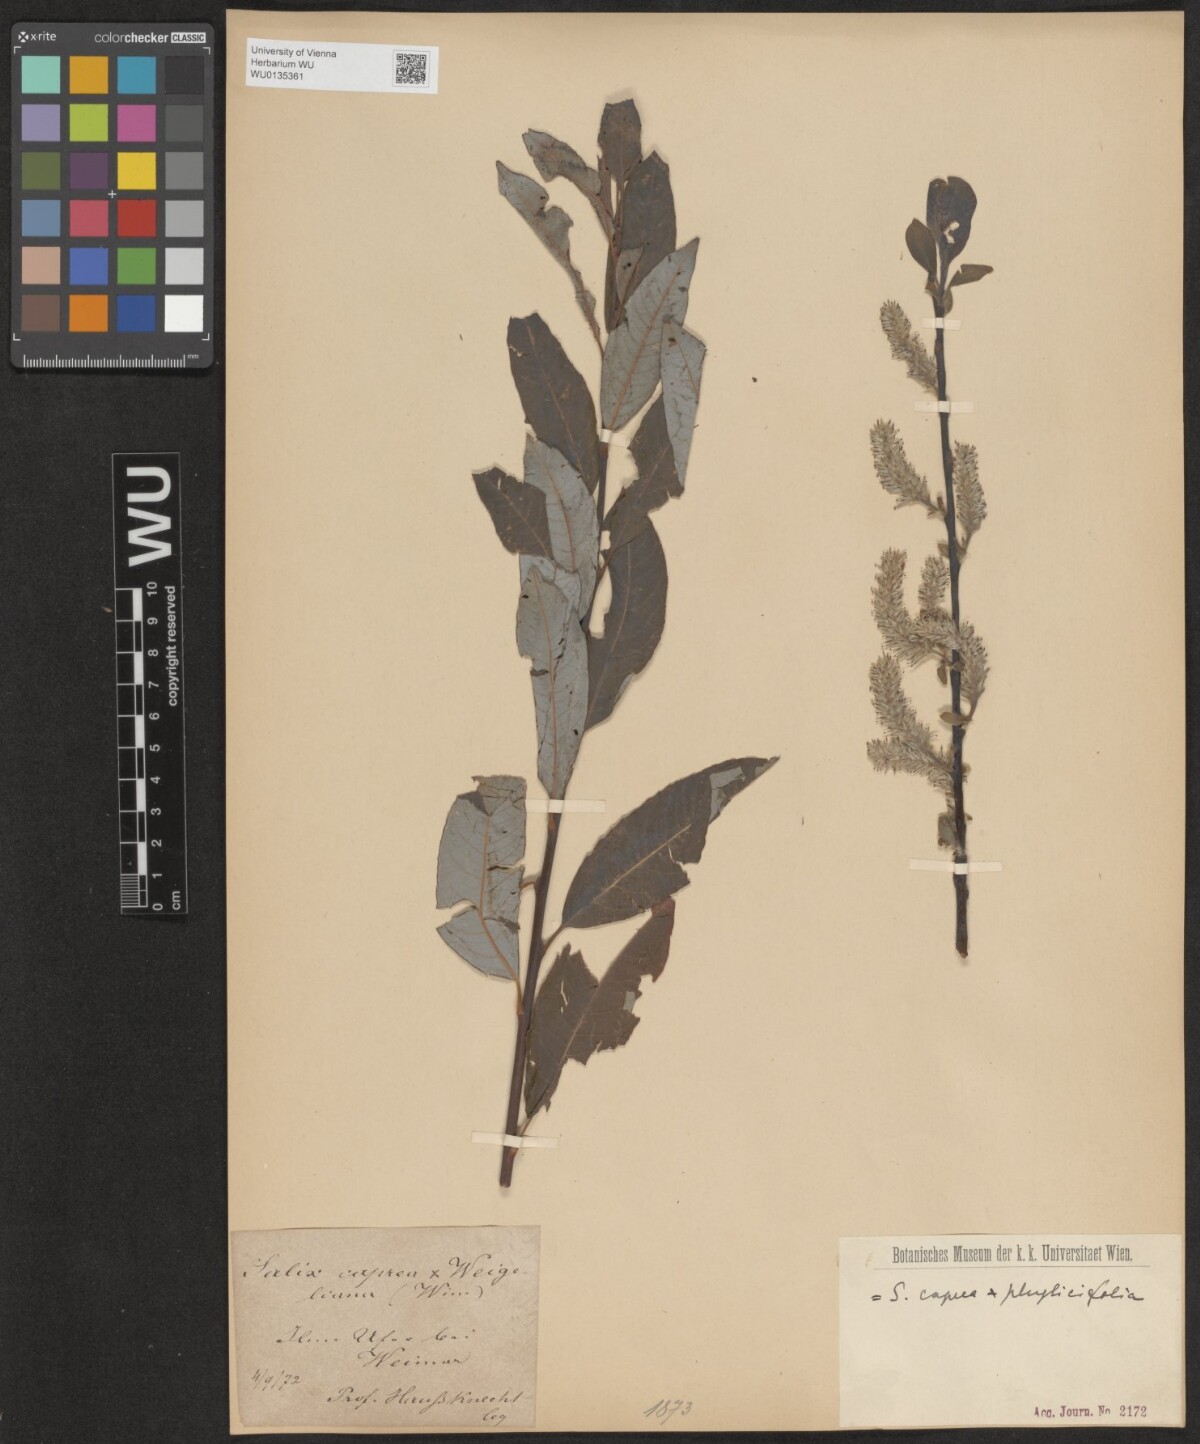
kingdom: Plantae
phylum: Tracheophyta
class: Magnoliopsida
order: Malpighiales
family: Salicaceae
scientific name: Salicaceae
